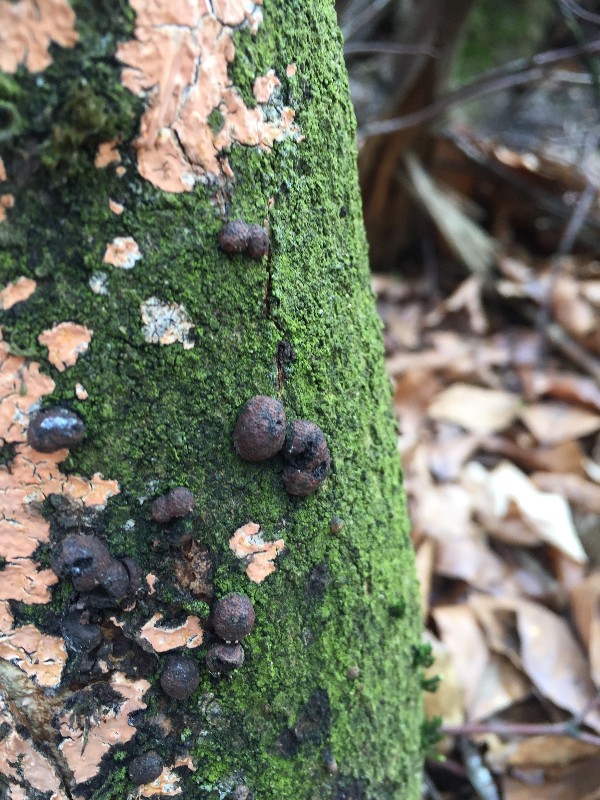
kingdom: Fungi
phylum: Ascomycota
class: Sordariomycetes
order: Xylariales
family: Hypoxylaceae
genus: Hypoxylon
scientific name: Hypoxylon fragiforme
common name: kuljordbær
